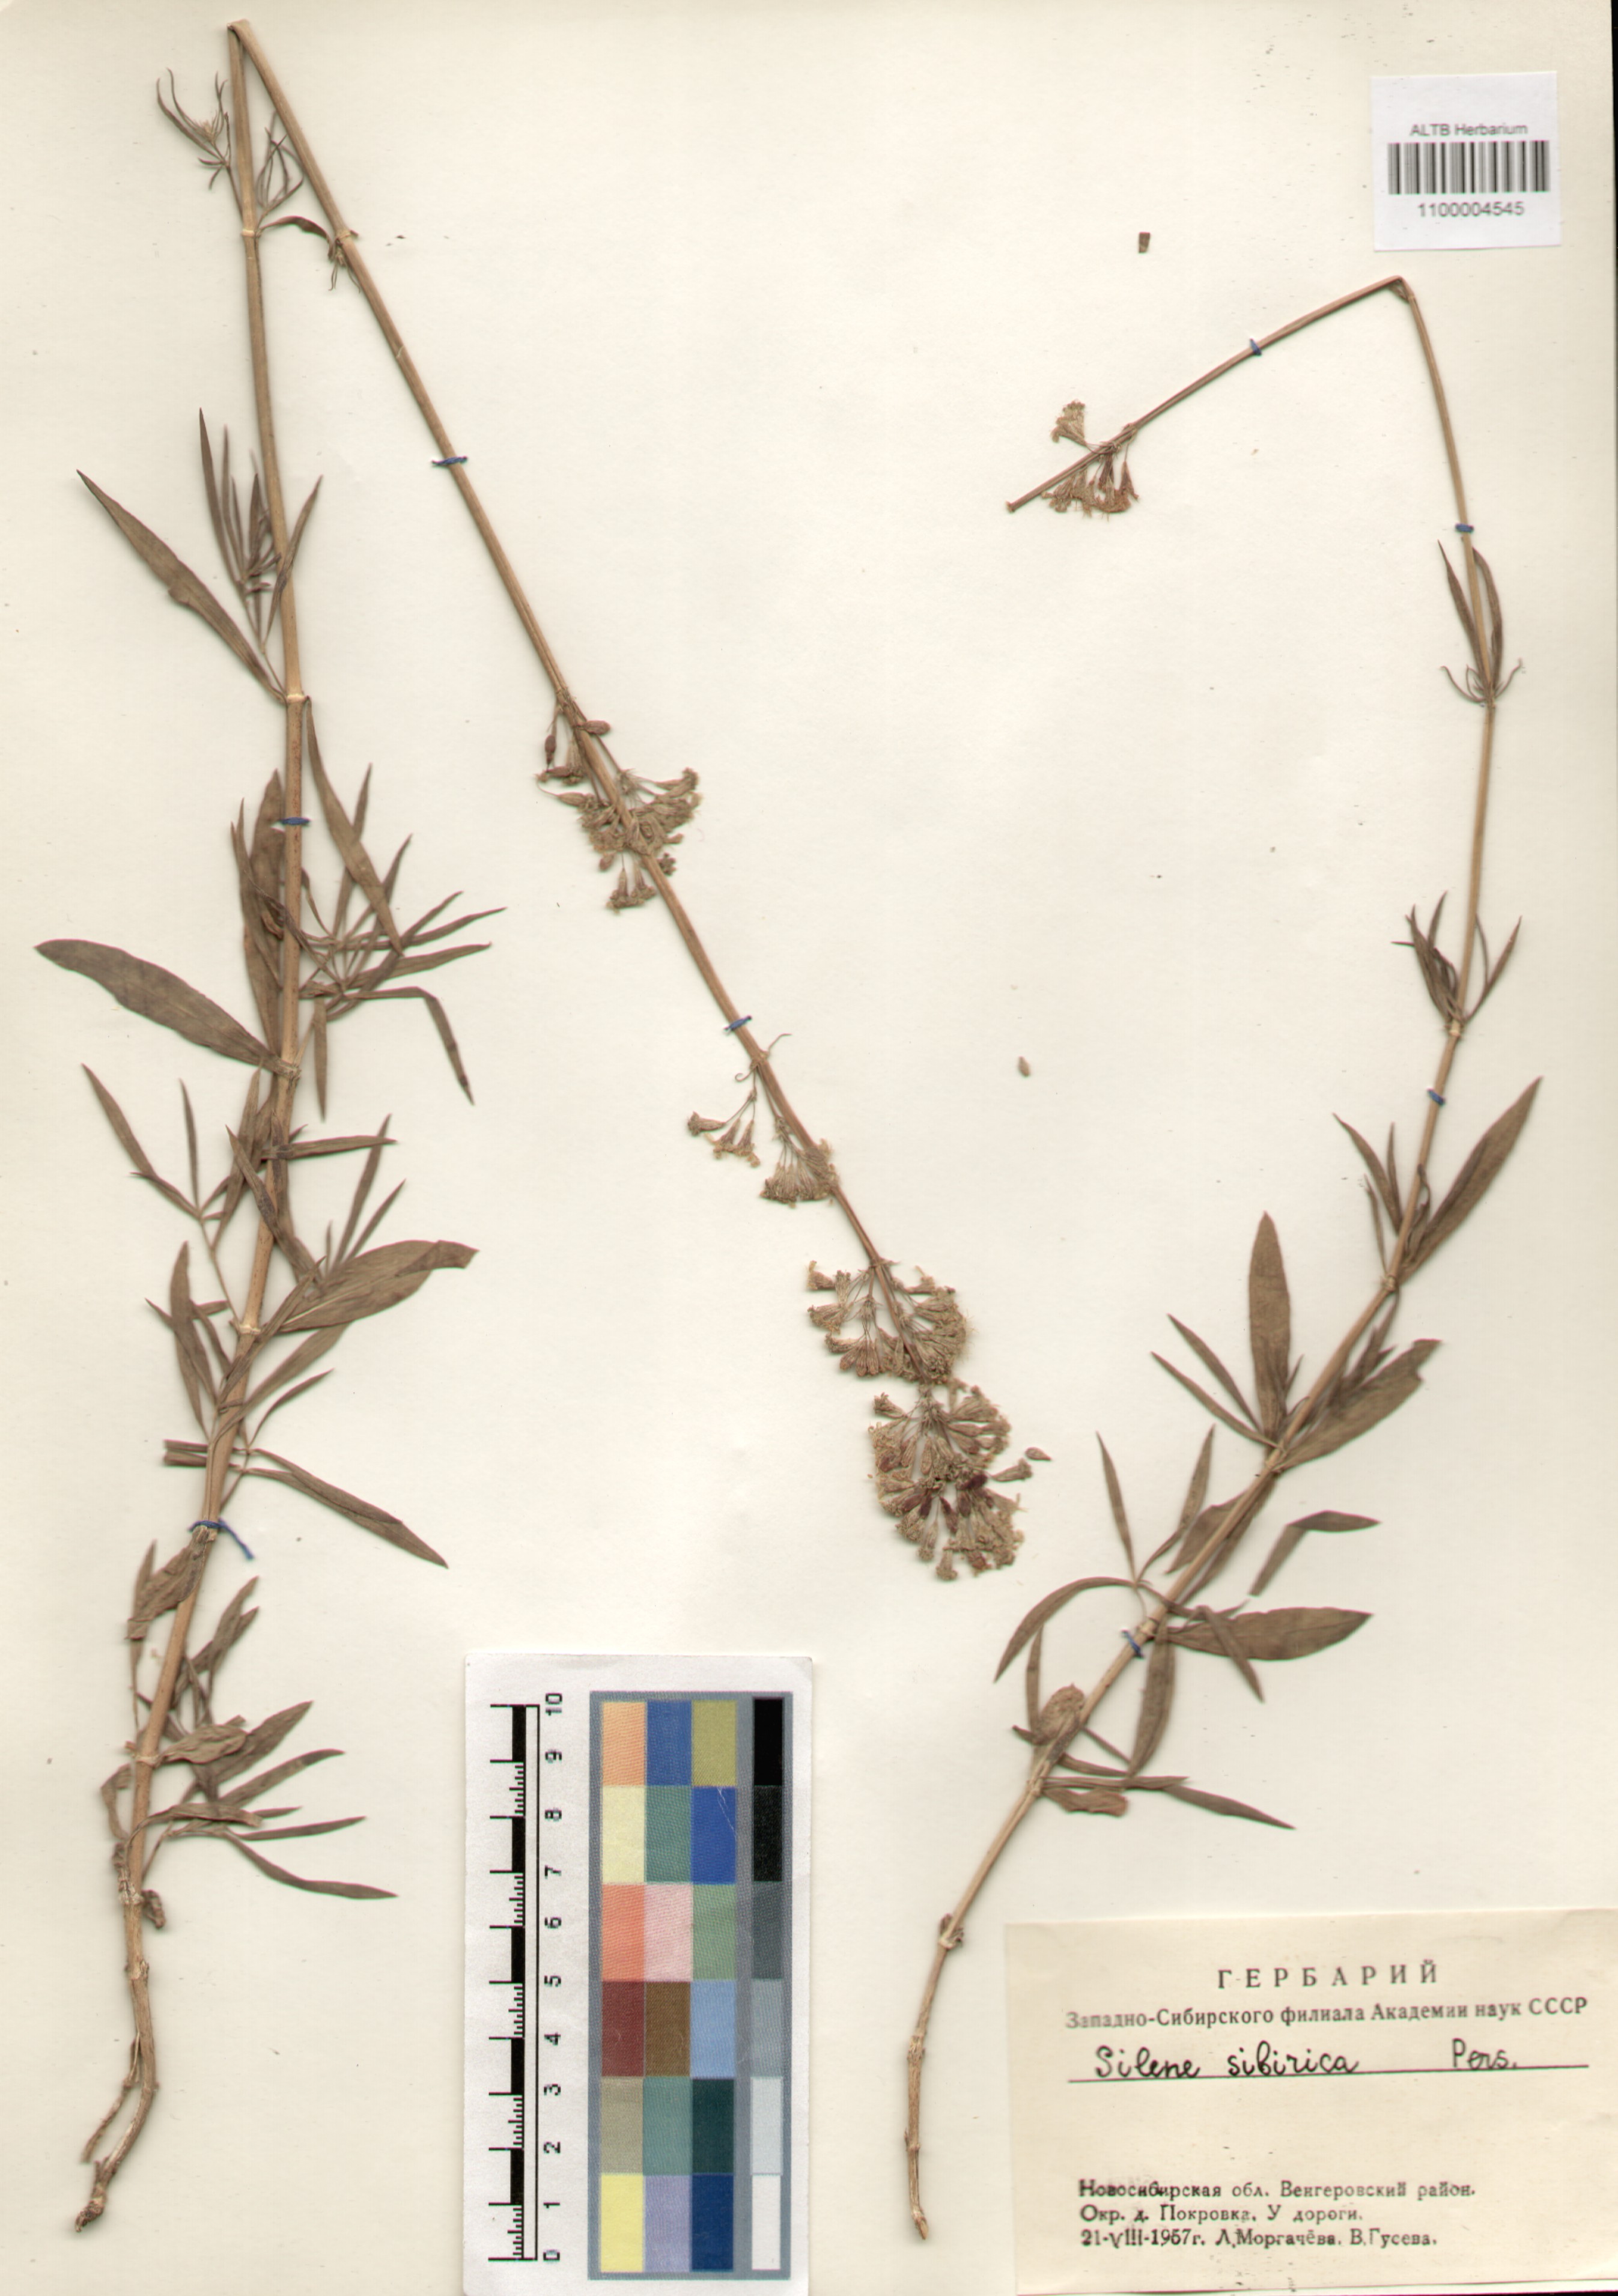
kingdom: Plantae
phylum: Tracheophyta
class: Magnoliopsida
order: Caryophyllales
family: Caryophyllaceae
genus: Silene
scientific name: Silene sibirica
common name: Siberian catchfly
